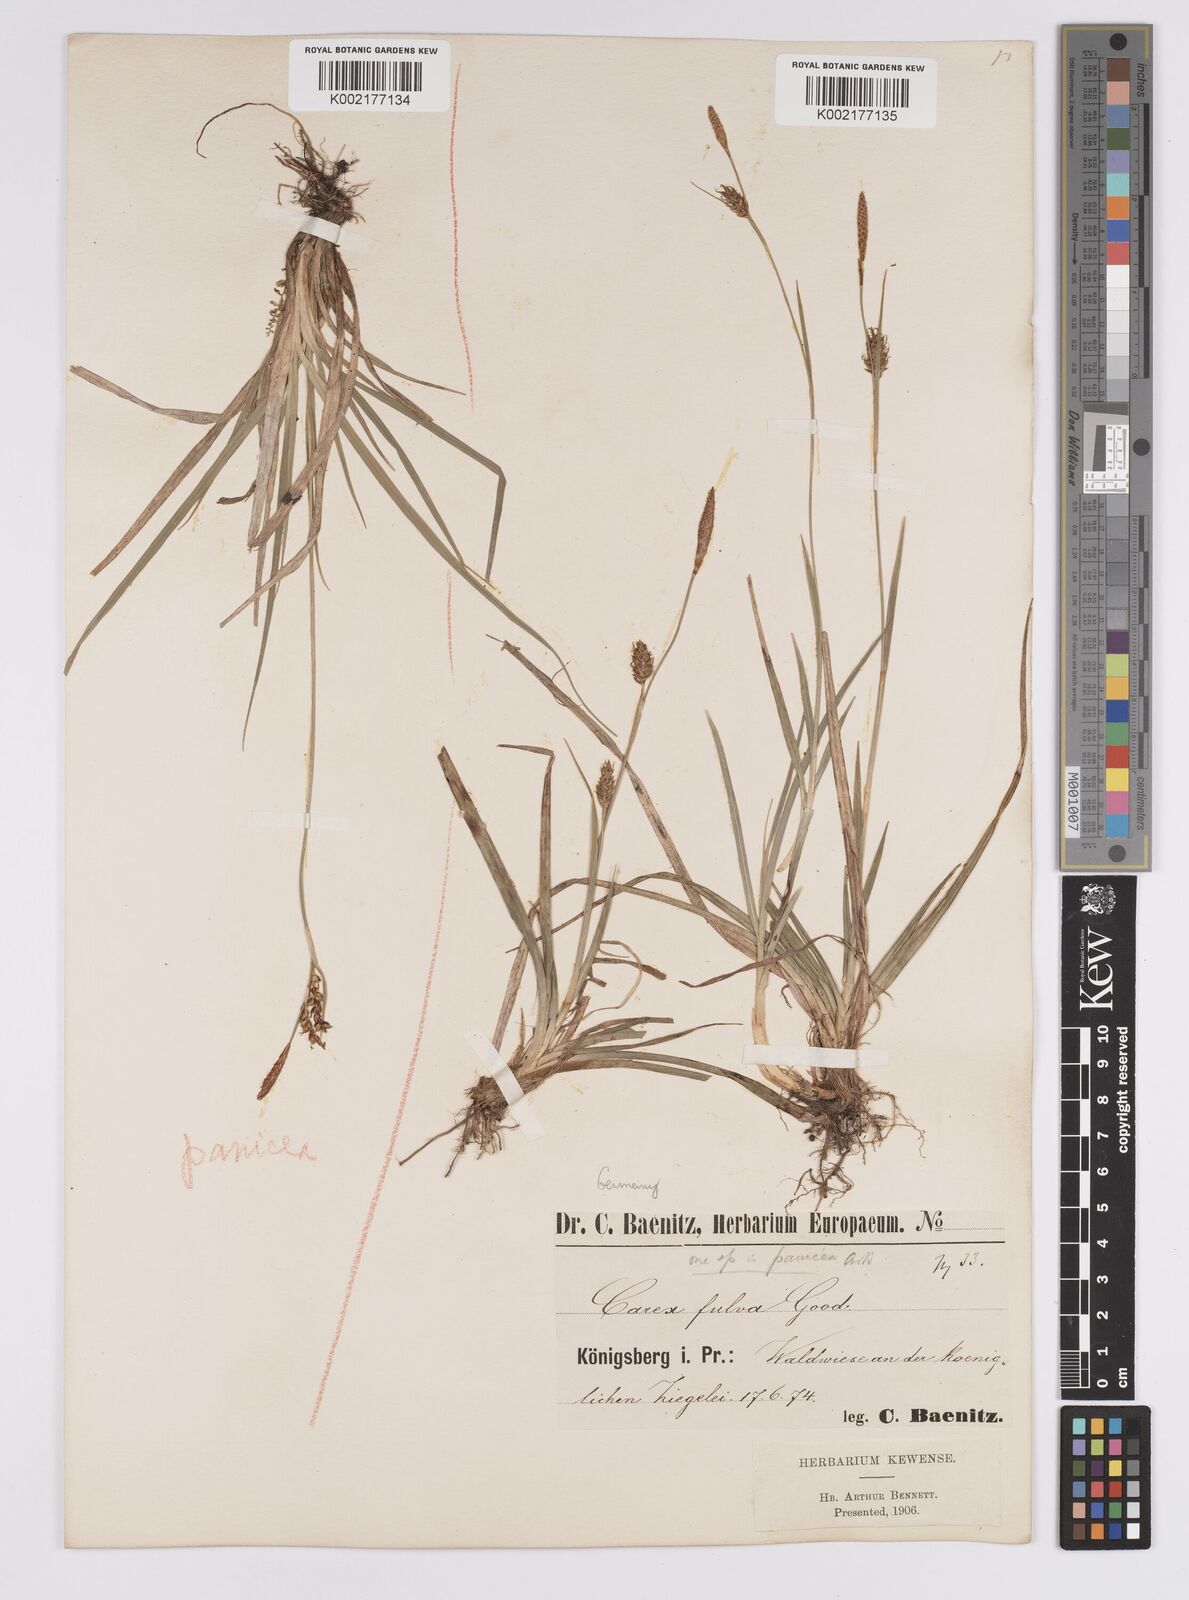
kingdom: Plantae
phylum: Tracheophyta
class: Liliopsida
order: Poales
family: Cyperaceae
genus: Carex
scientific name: Carex hostiana
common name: Tawny sedge
